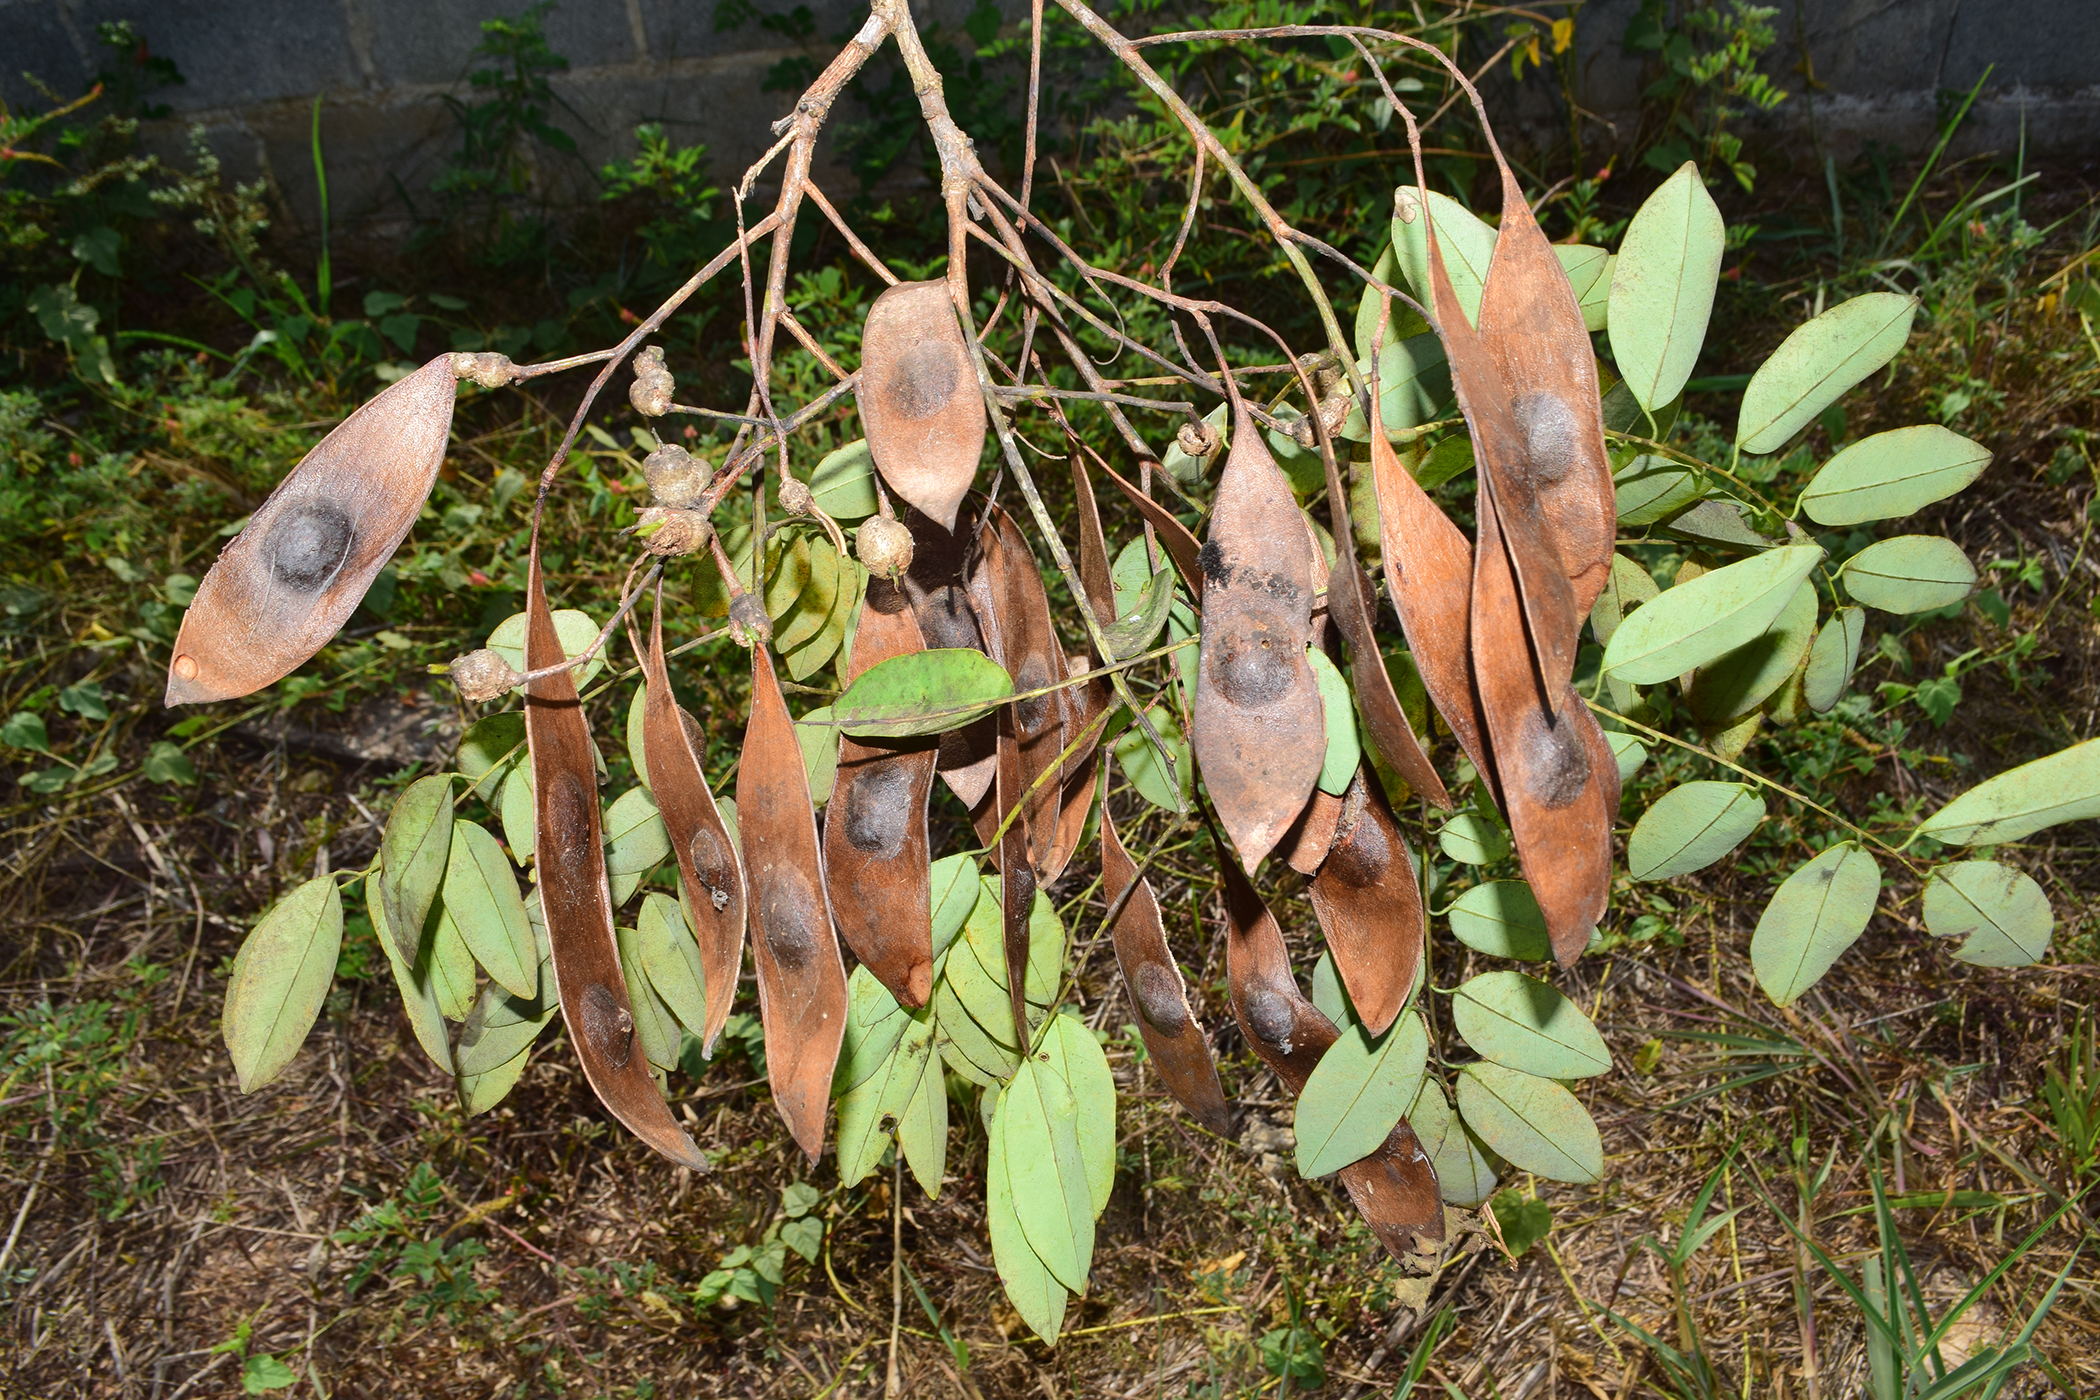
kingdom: Plantae
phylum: Tracheophyta
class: Magnoliopsida
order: Fabales
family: Fabaceae
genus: Dalbergia
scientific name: Dalbergia oliveri
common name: Burmese rosewood
